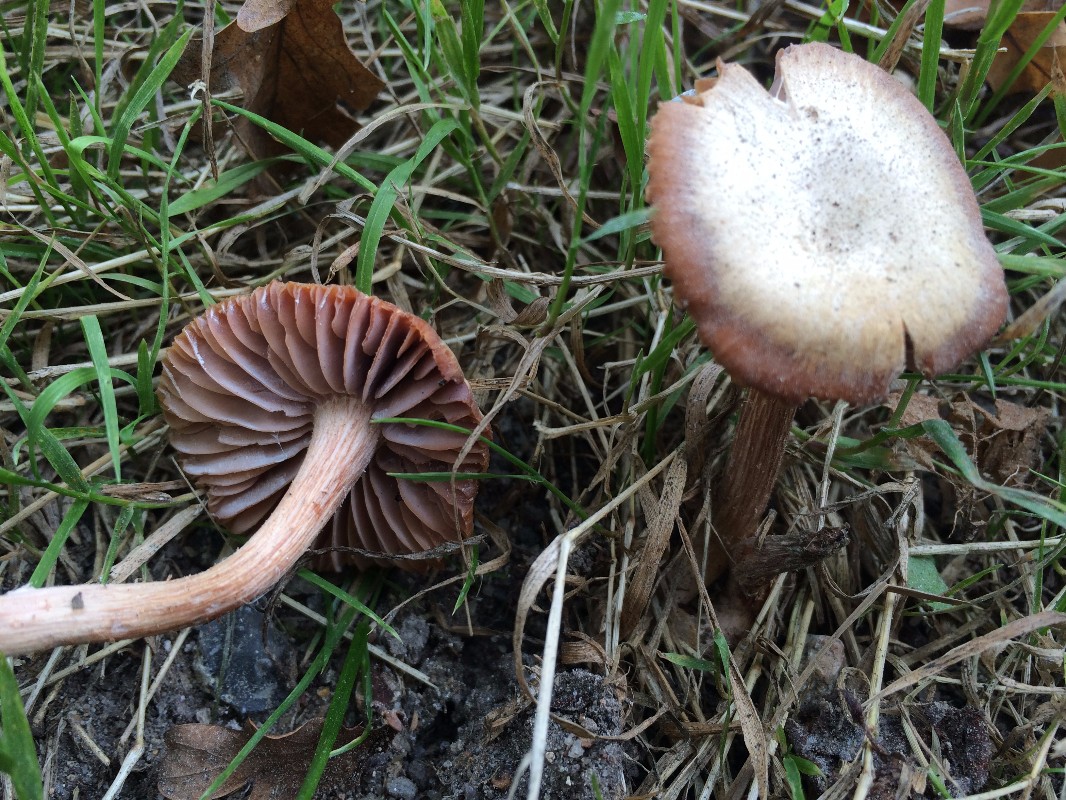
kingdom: Fungi
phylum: Basidiomycota
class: Agaricomycetes
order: Agaricales
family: Hydnangiaceae
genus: Laccaria
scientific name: Laccaria laccata
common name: rød ametysthat
